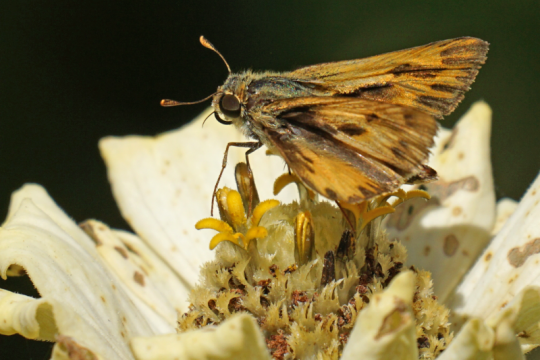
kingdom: Animalia
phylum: Arthropoda
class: Insecta
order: Lepidoptera
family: Hesperiidae
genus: Hylephila
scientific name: Hylephila phyleus
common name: Fiery Skipper
